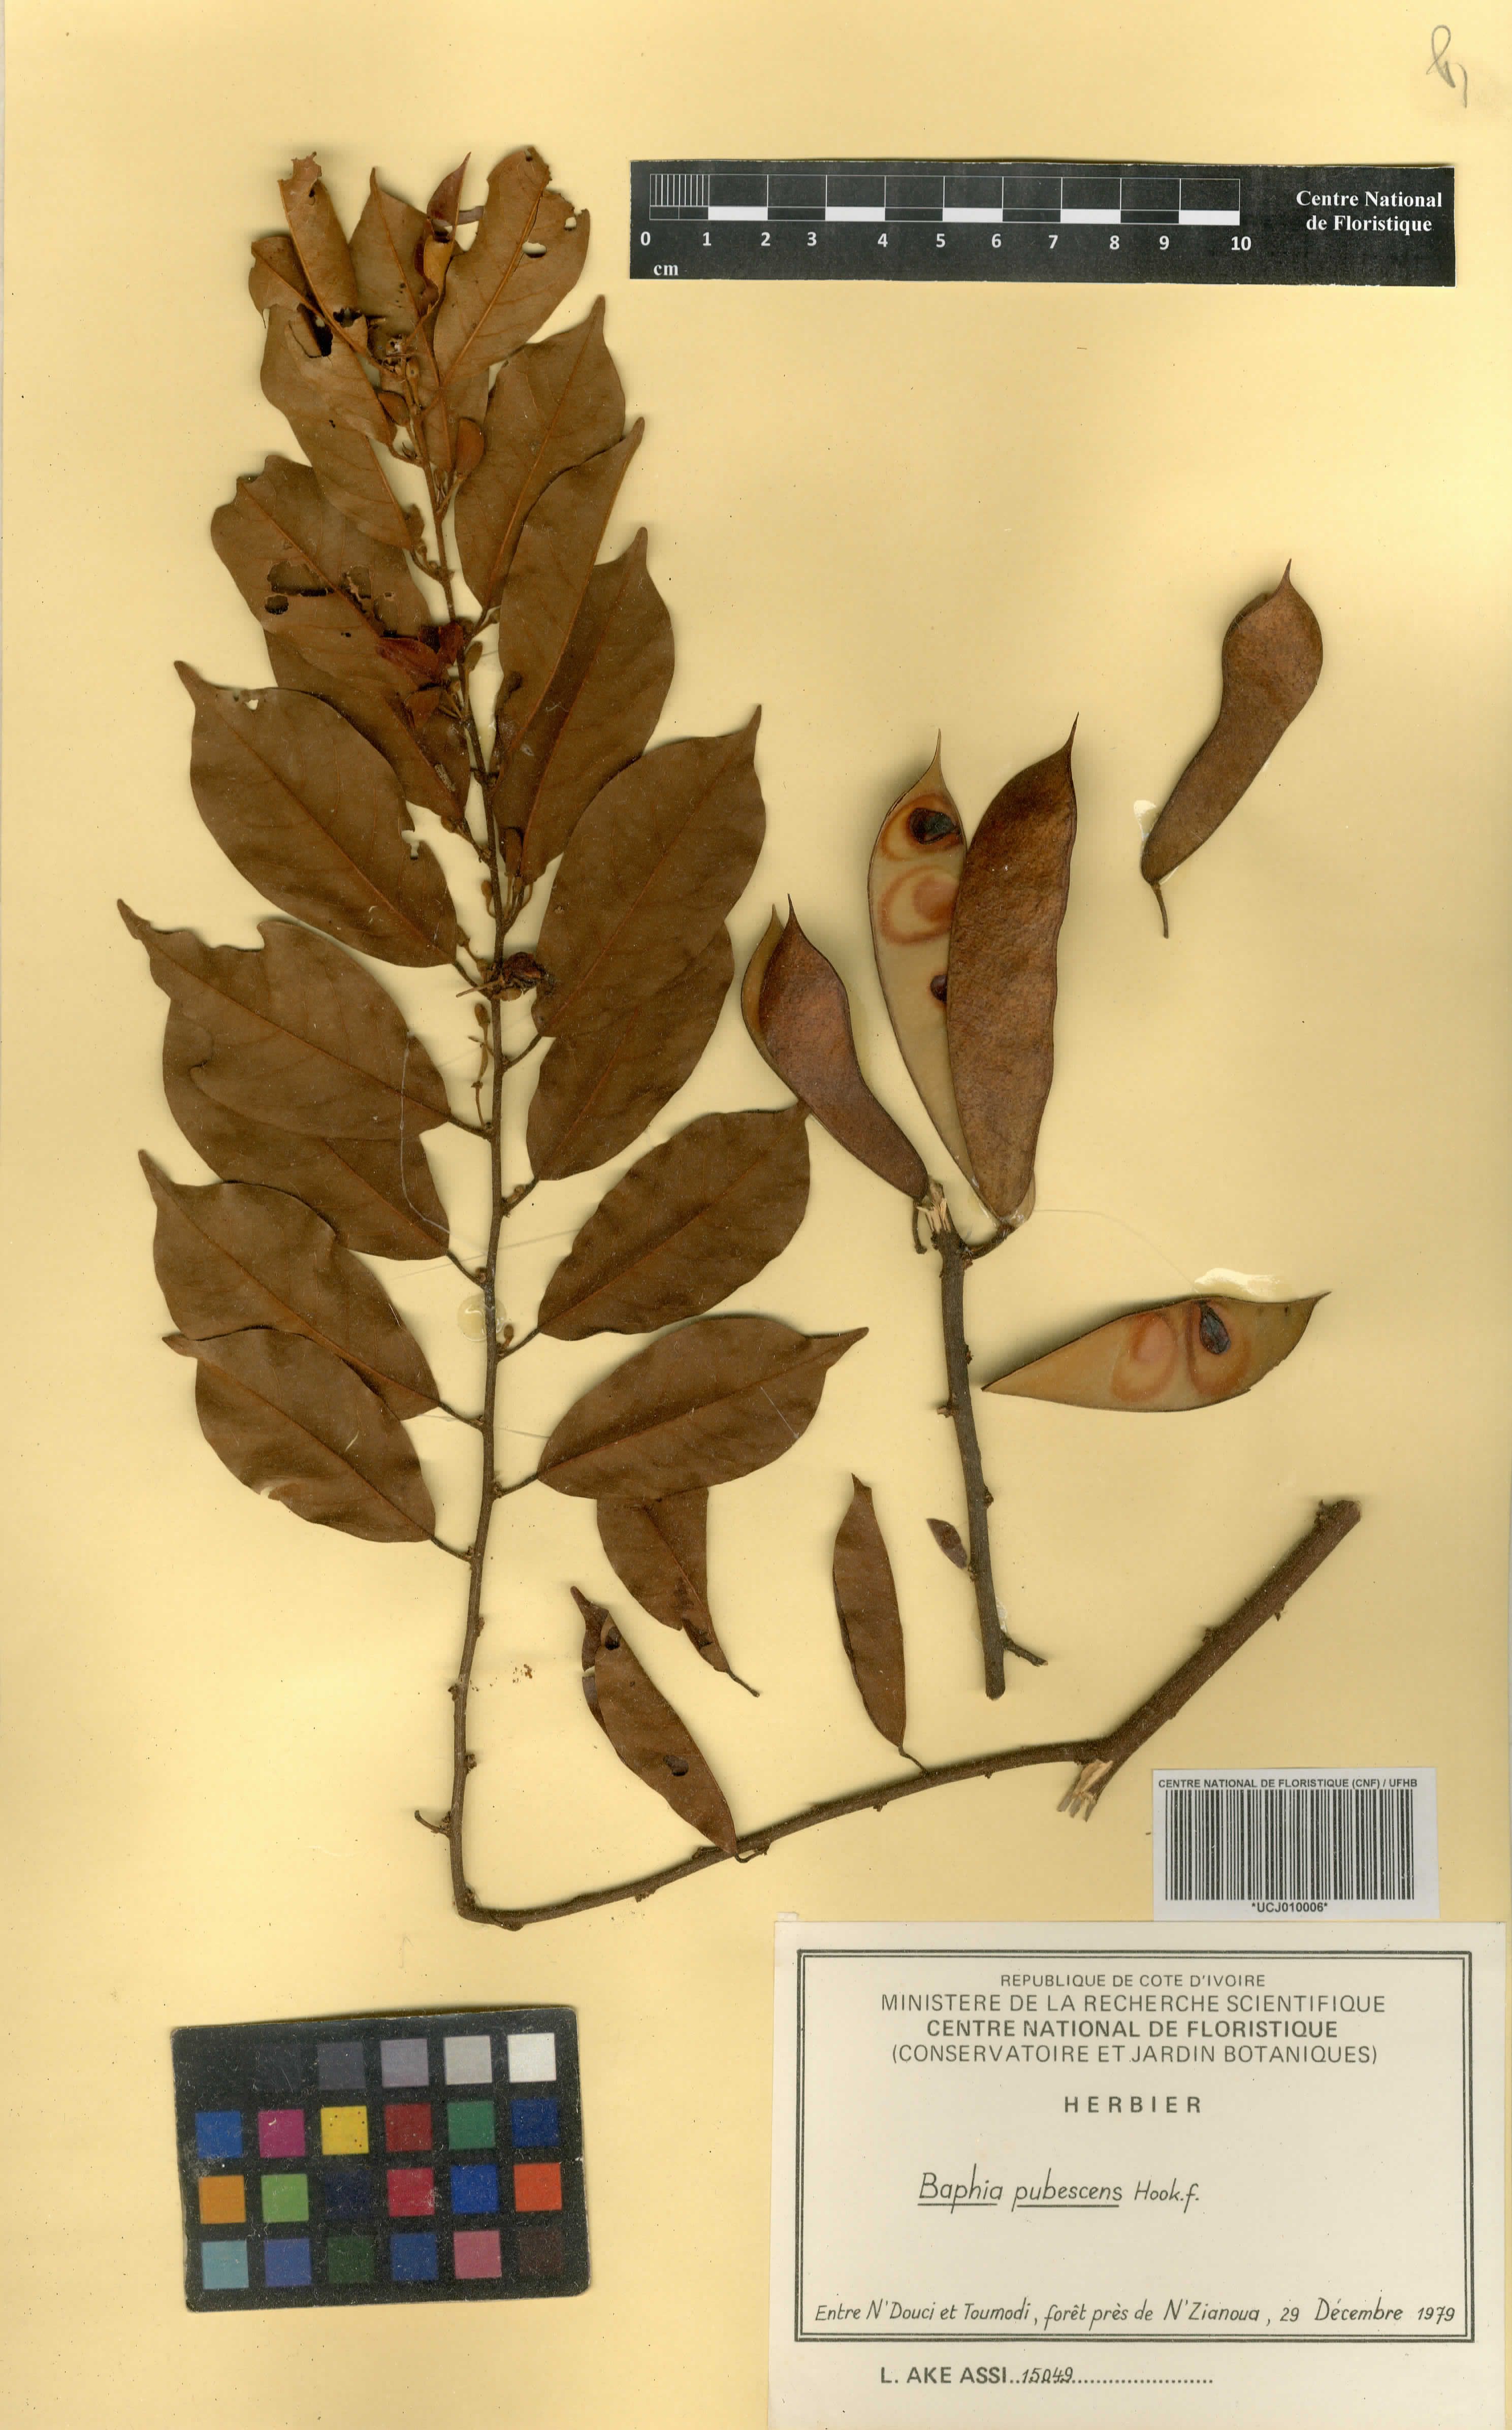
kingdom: Plantae
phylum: Tracheophyta
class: Magnoliopsida
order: Fabales
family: Fabaceae
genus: Baphia
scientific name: Baphia pubescens
